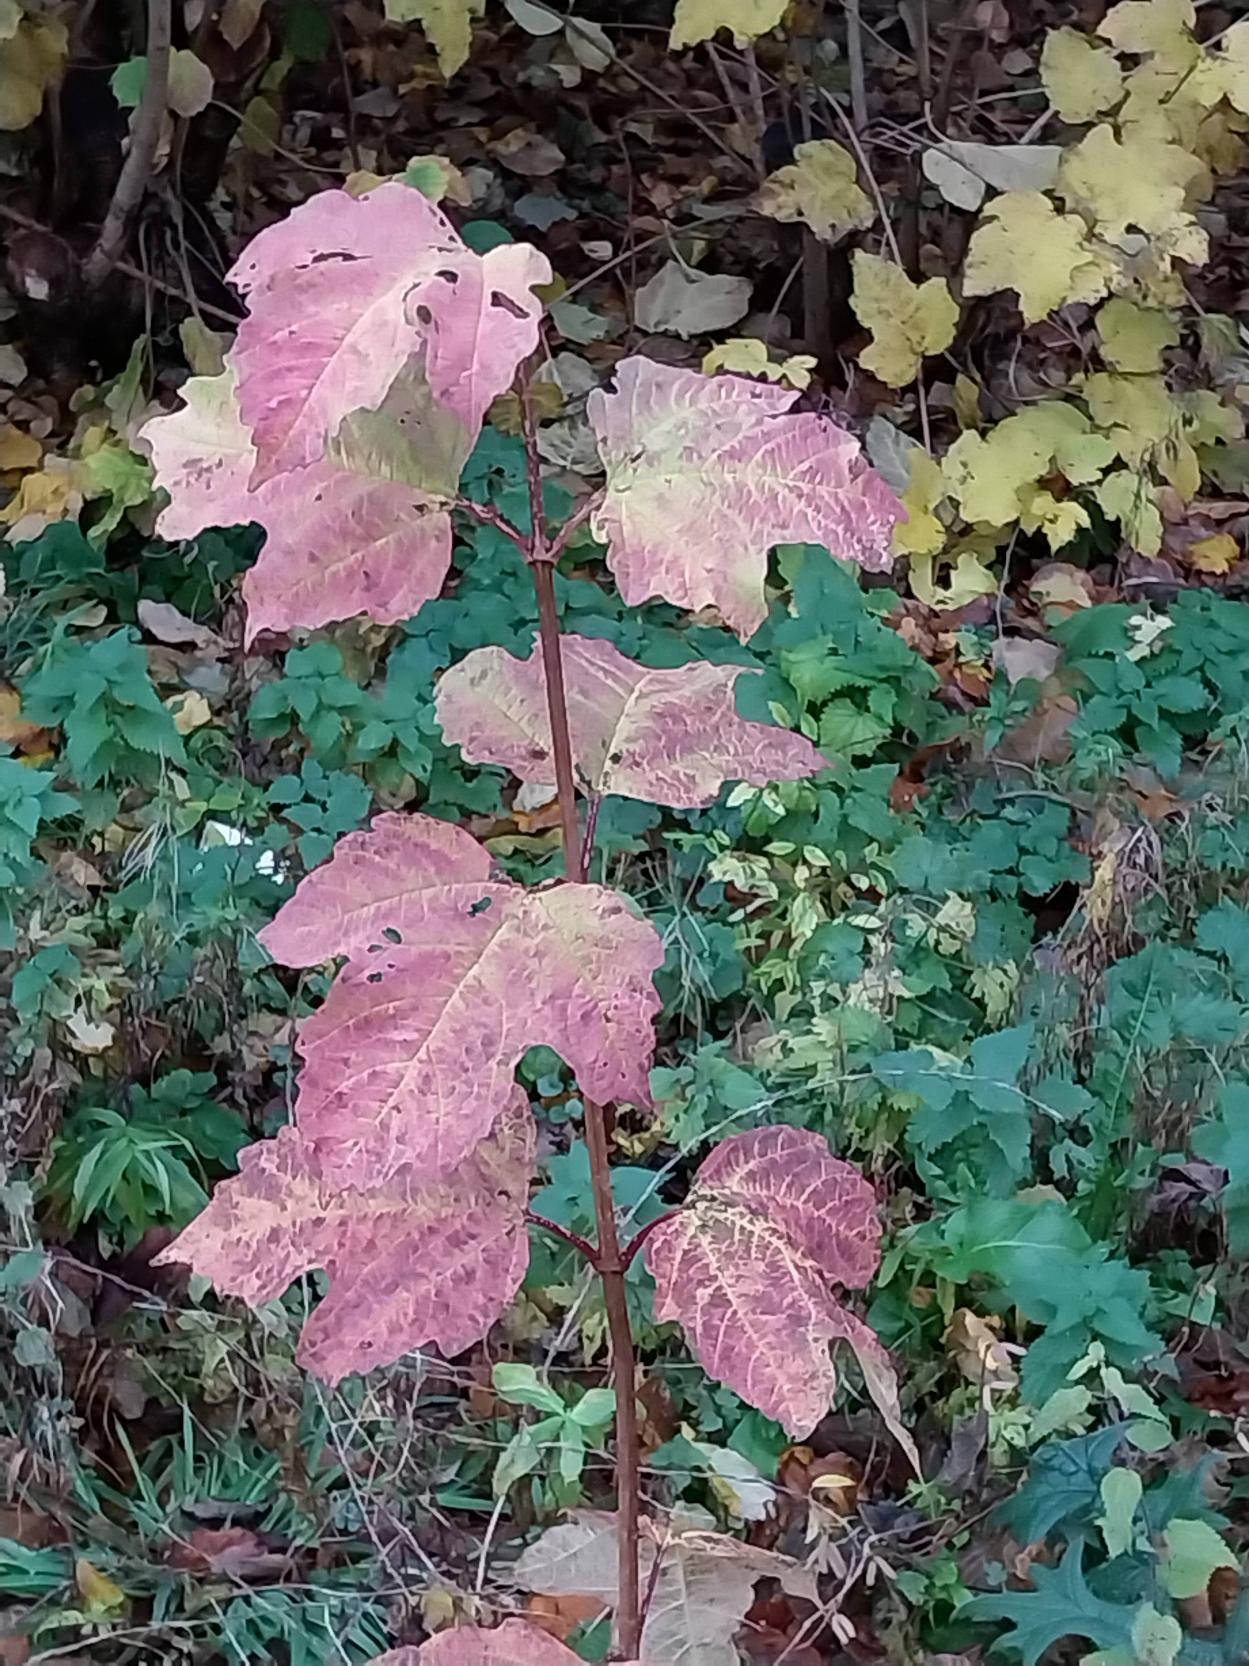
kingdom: Plantae
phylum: Tracheophyta
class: Magnoliopsida
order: Dipsacales
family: Viburnaceae
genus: Viburnum
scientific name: Viburnum opulus
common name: Kvalkved
